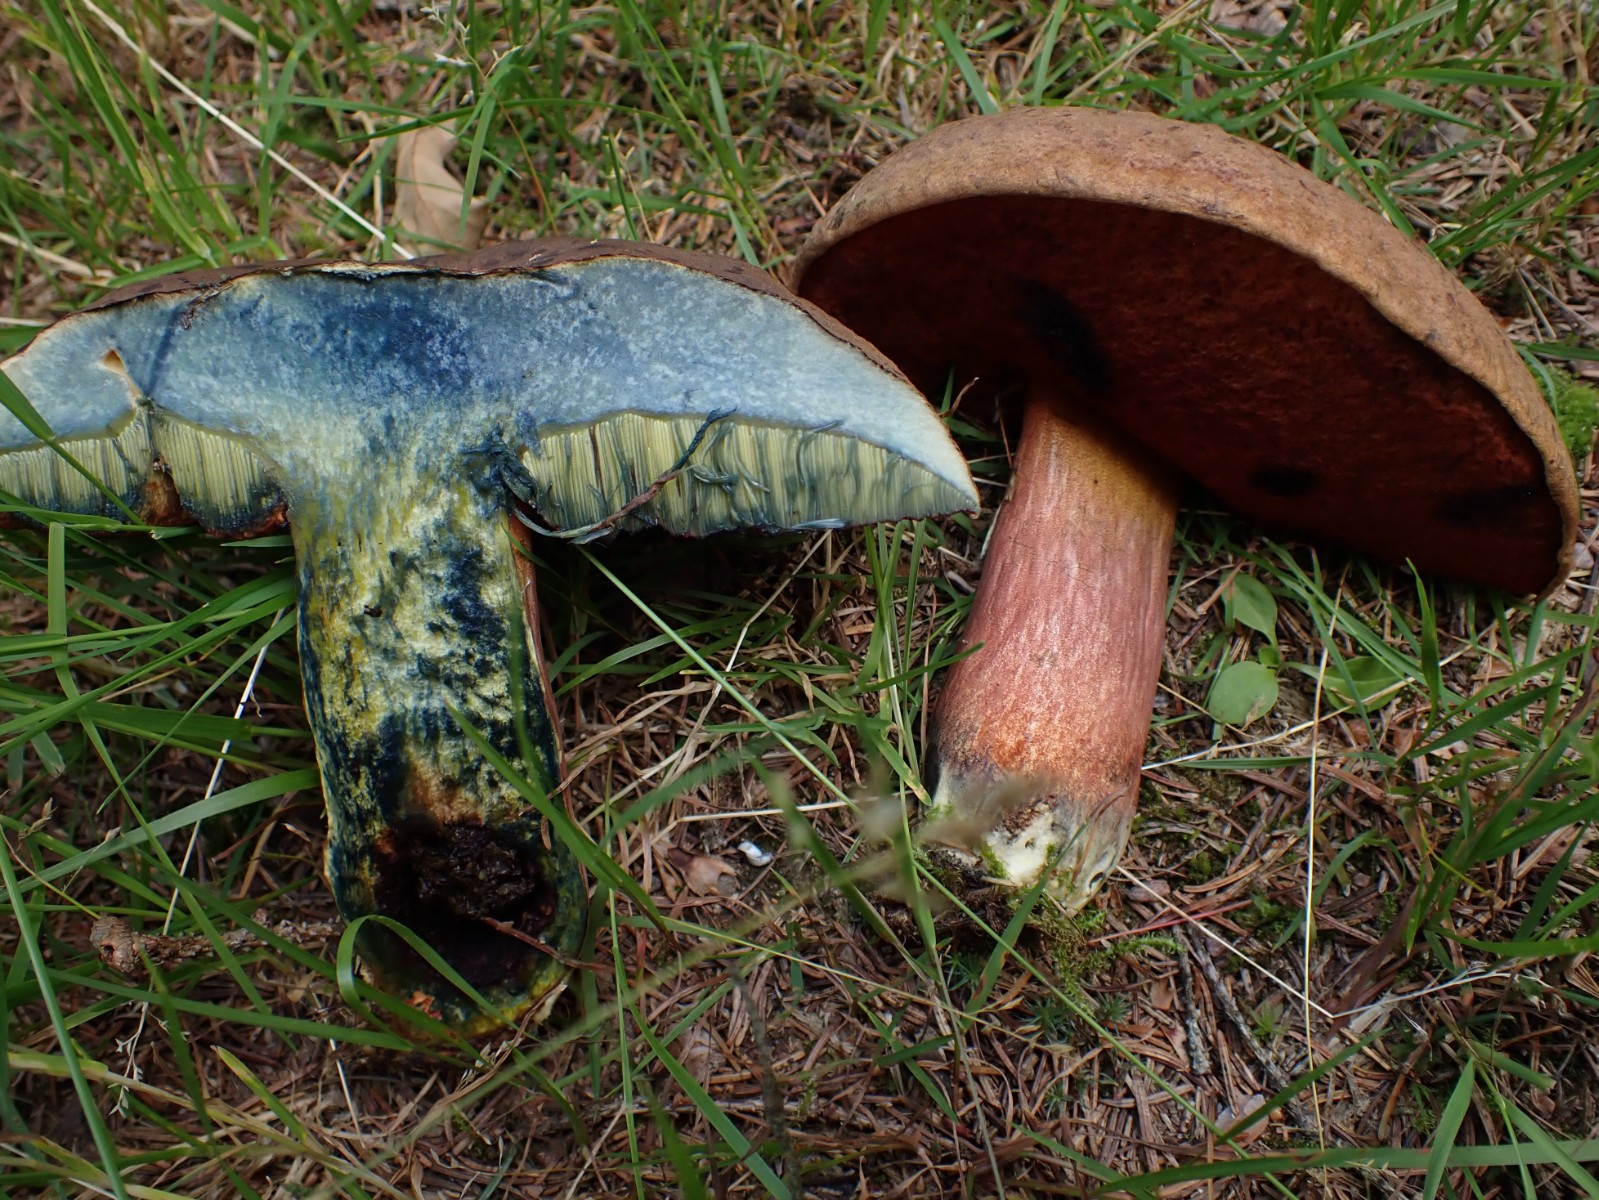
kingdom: Fungi
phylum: Basidiomycota
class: Agaricomycetes
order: Boletales
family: Boletaceae
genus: Neoboletus
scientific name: Neoboletus erythropus
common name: punktstokket indigorørhat
